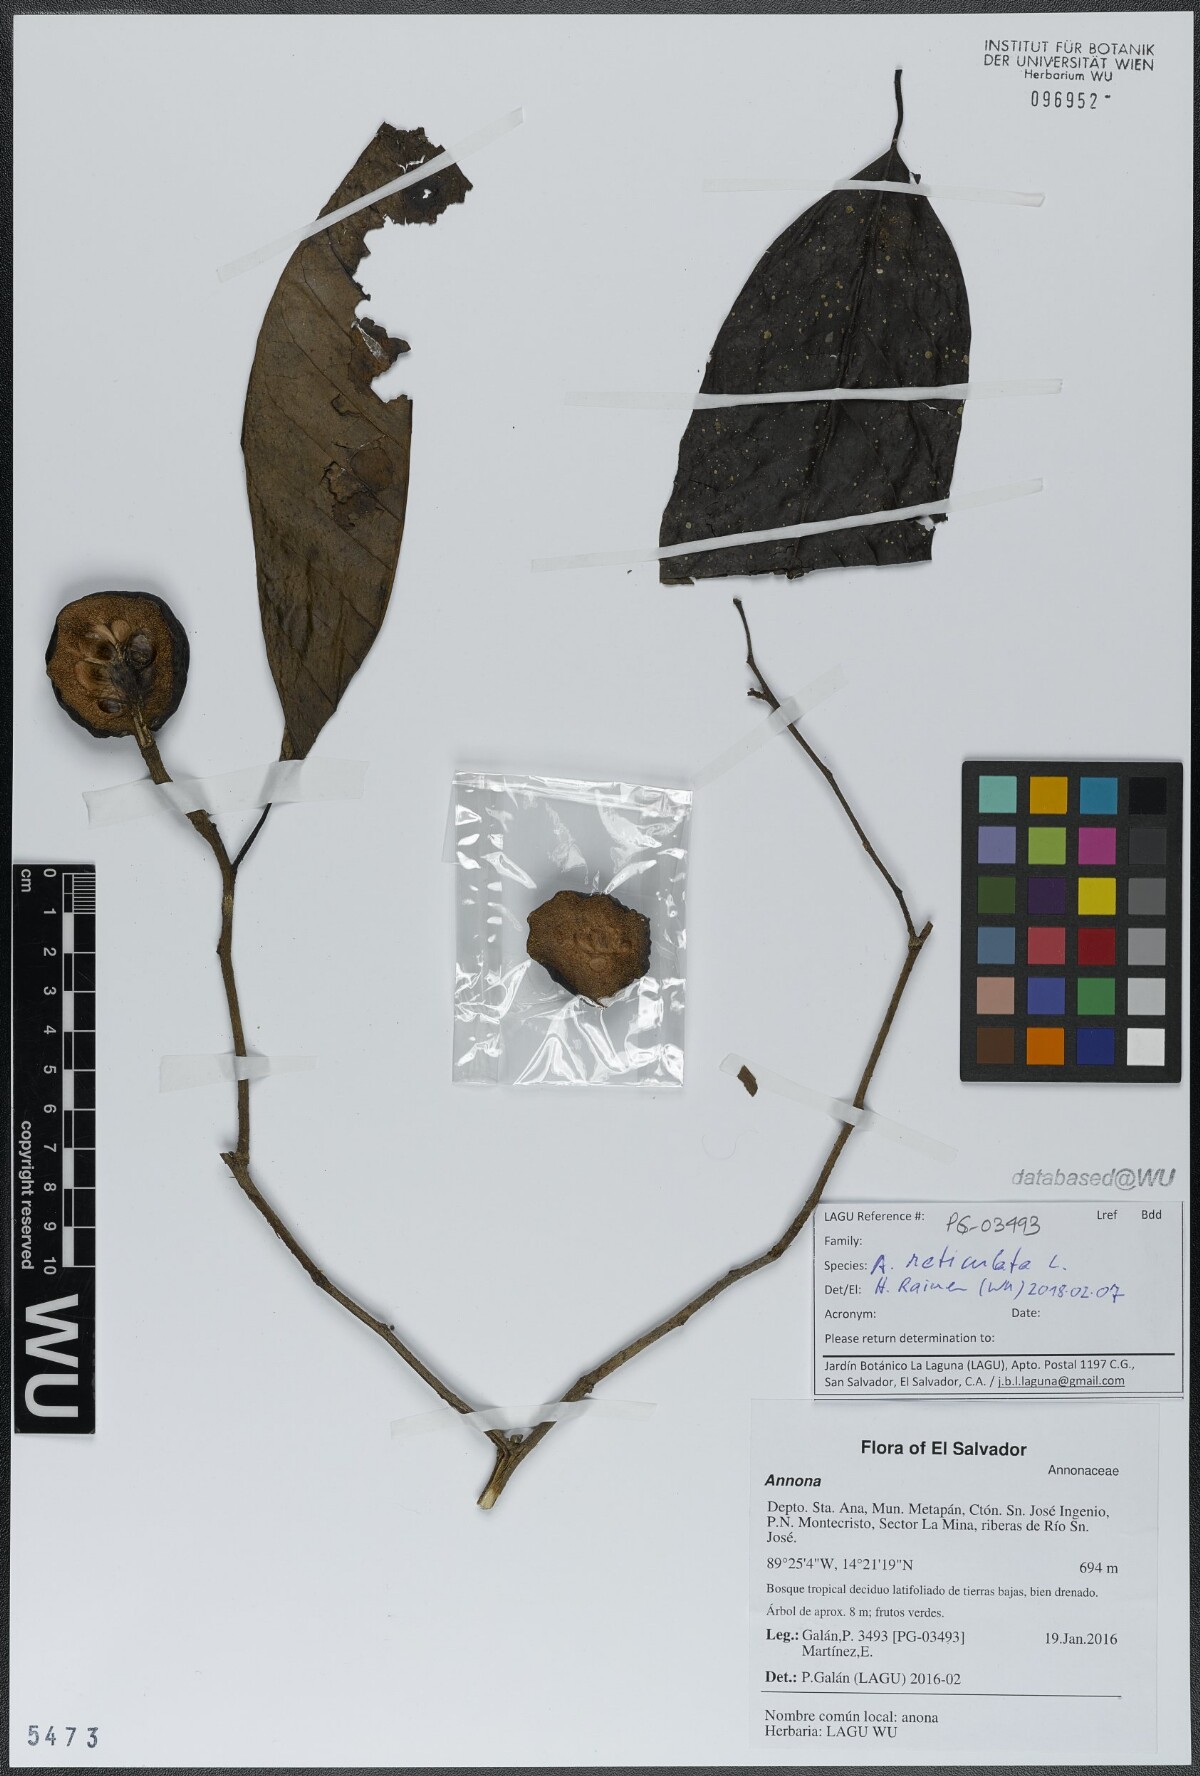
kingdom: Plantae
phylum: Tracheophyta
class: Magnoliopsida
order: Magnoliales
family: Annonaceae
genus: Annona
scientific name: Annona reticulata
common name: Custard apple
